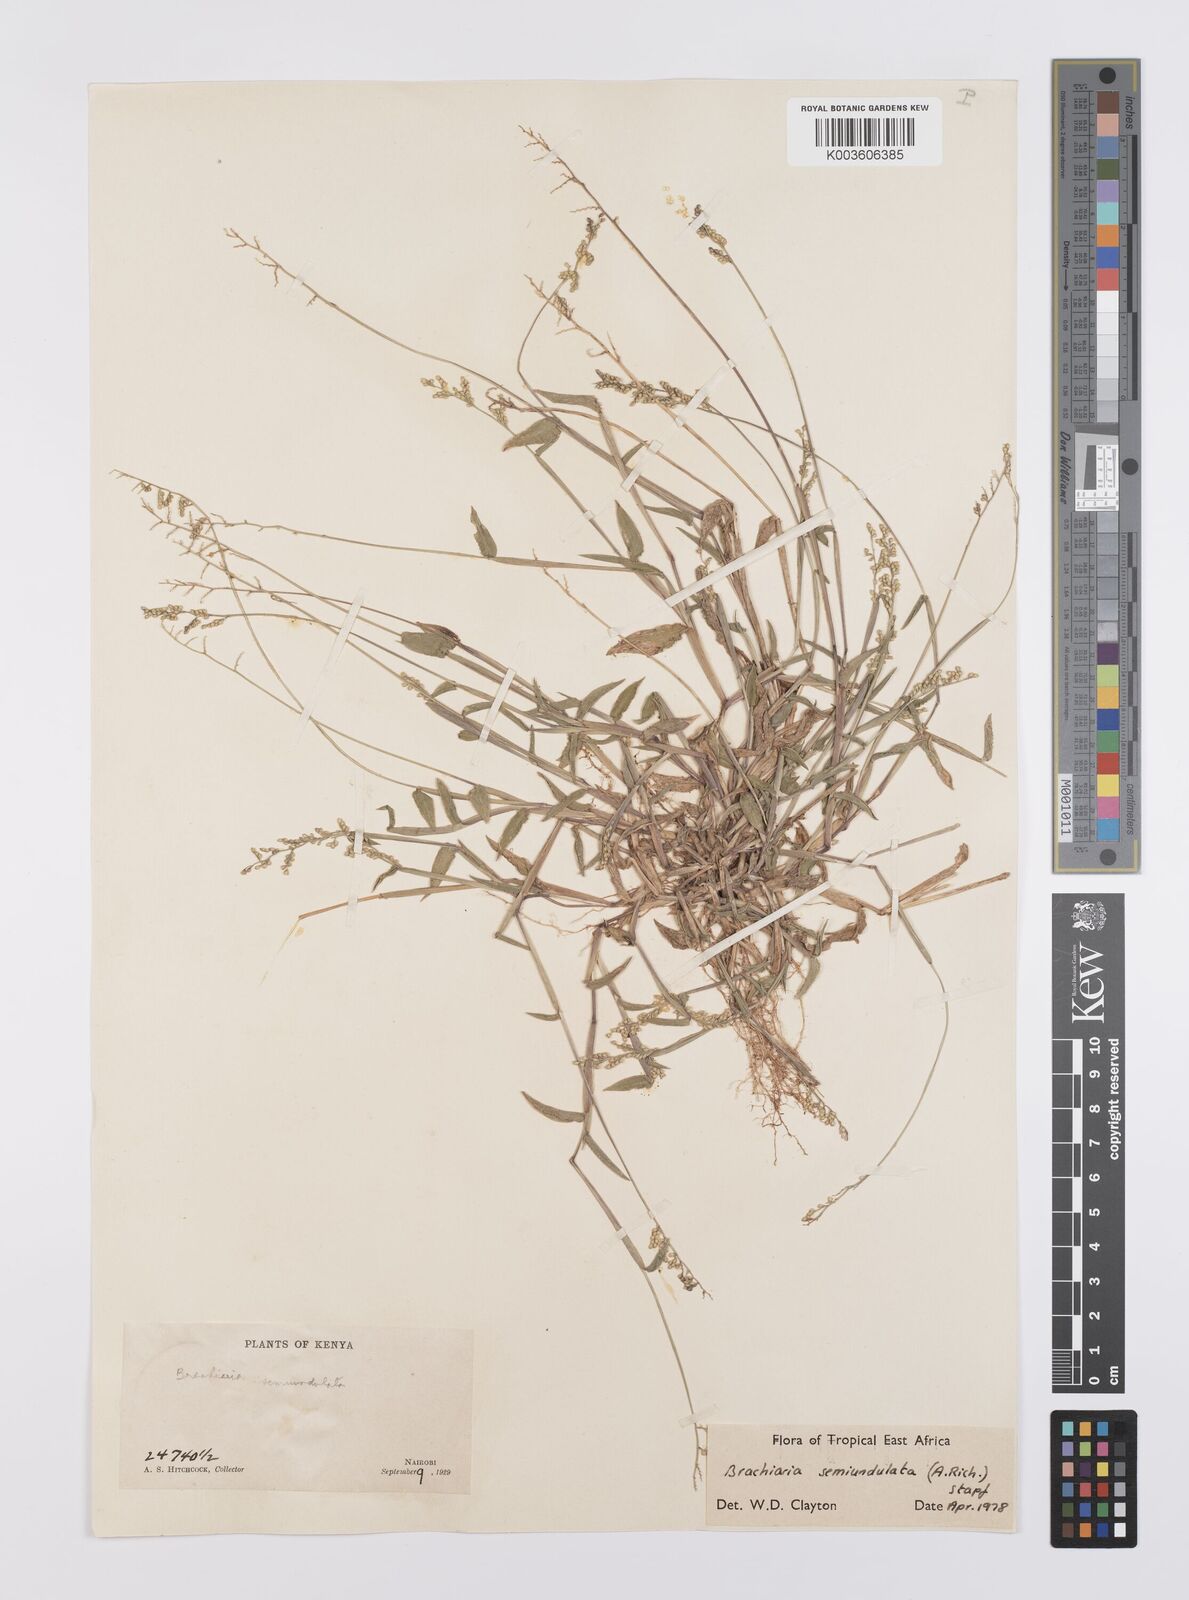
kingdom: Plantae
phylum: Tracheophyta
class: Liliopsida
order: Poales
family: Poaceae
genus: Urochloa
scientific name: Urochloa semiundulata
